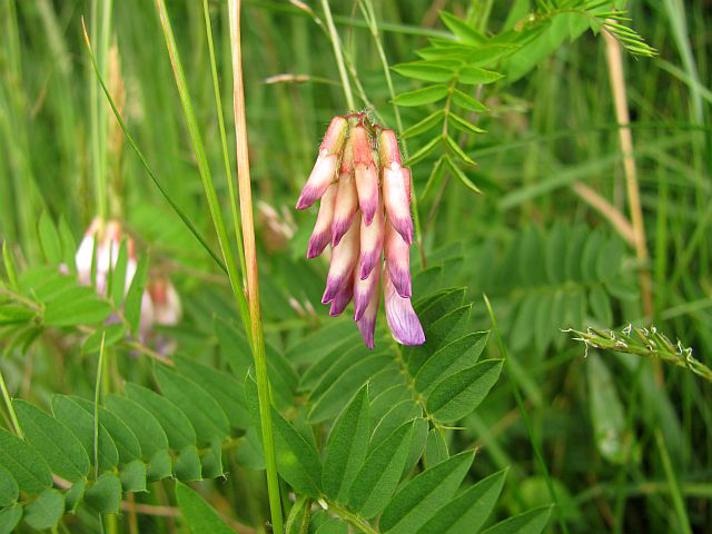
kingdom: Plantae
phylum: Tracheophyta
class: Magnoliopsida
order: Fabales
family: Fabaceae
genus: Vicia
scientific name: Vicia orobus
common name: Lyng-vikke
